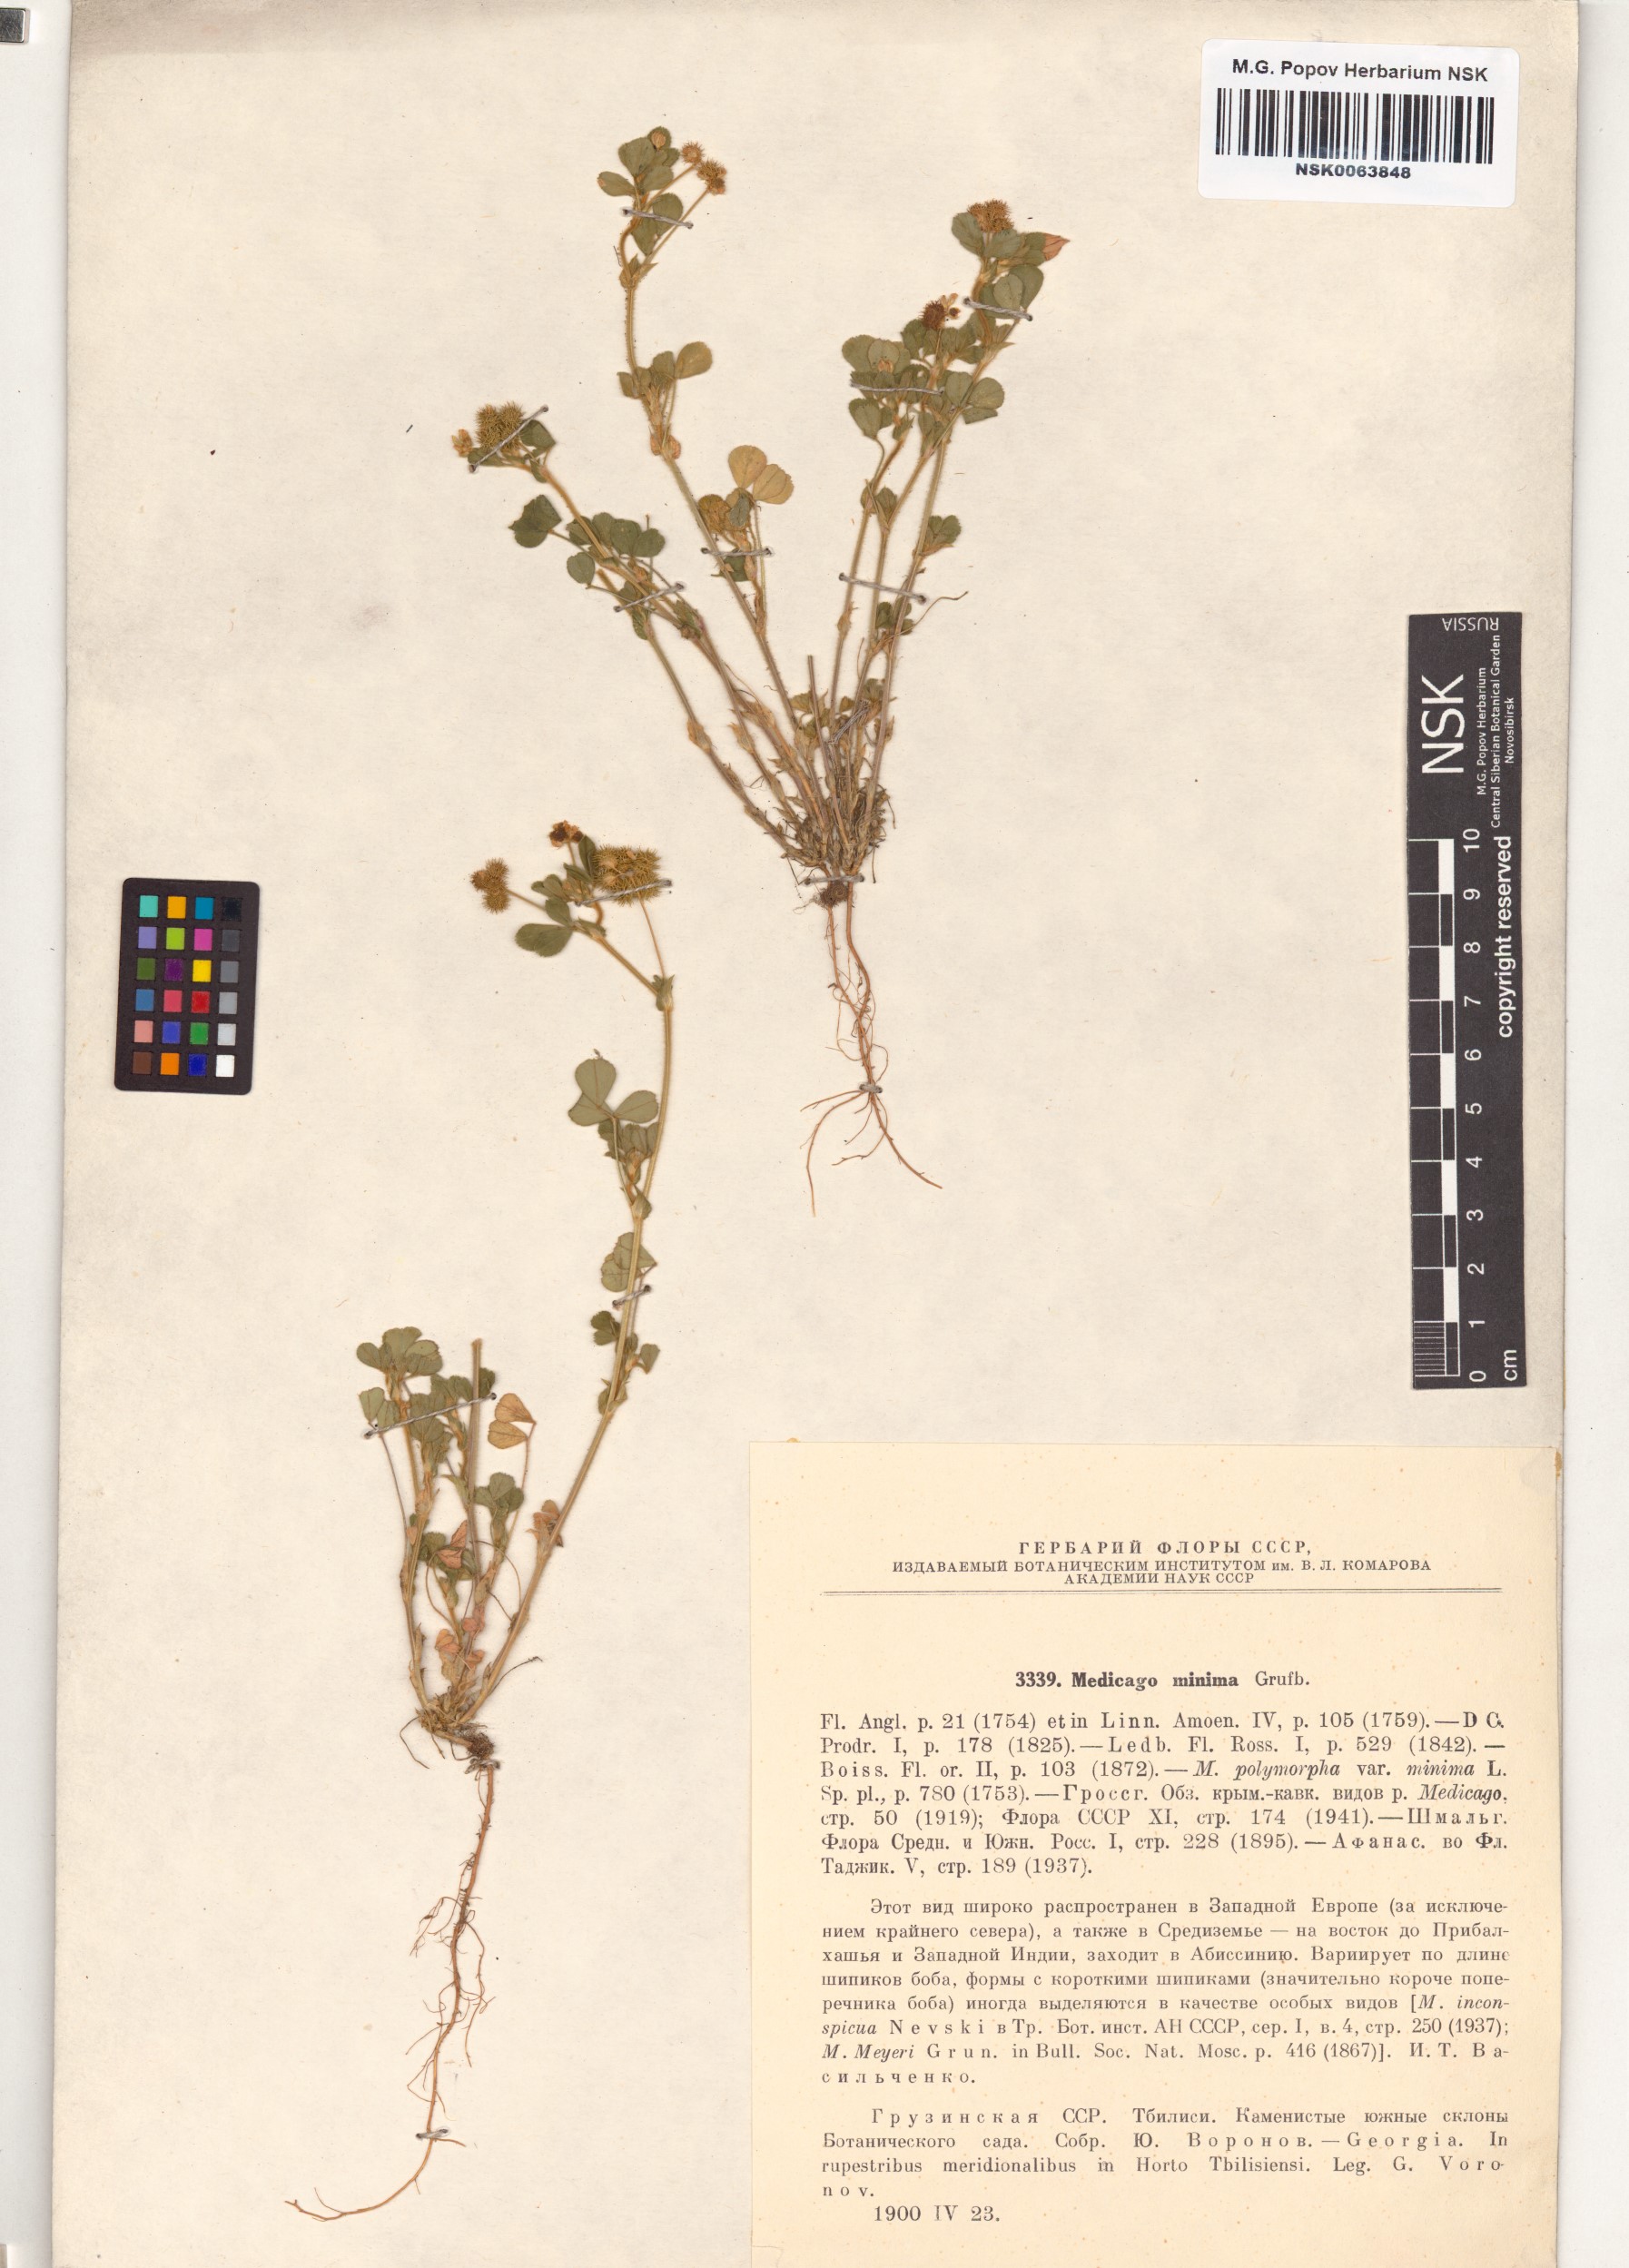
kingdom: Plantae
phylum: Tracheophyta
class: Magnoliopsida
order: Fabales
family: Fabaceae
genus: Medicago
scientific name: Medicago minima
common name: Little bur-clover
